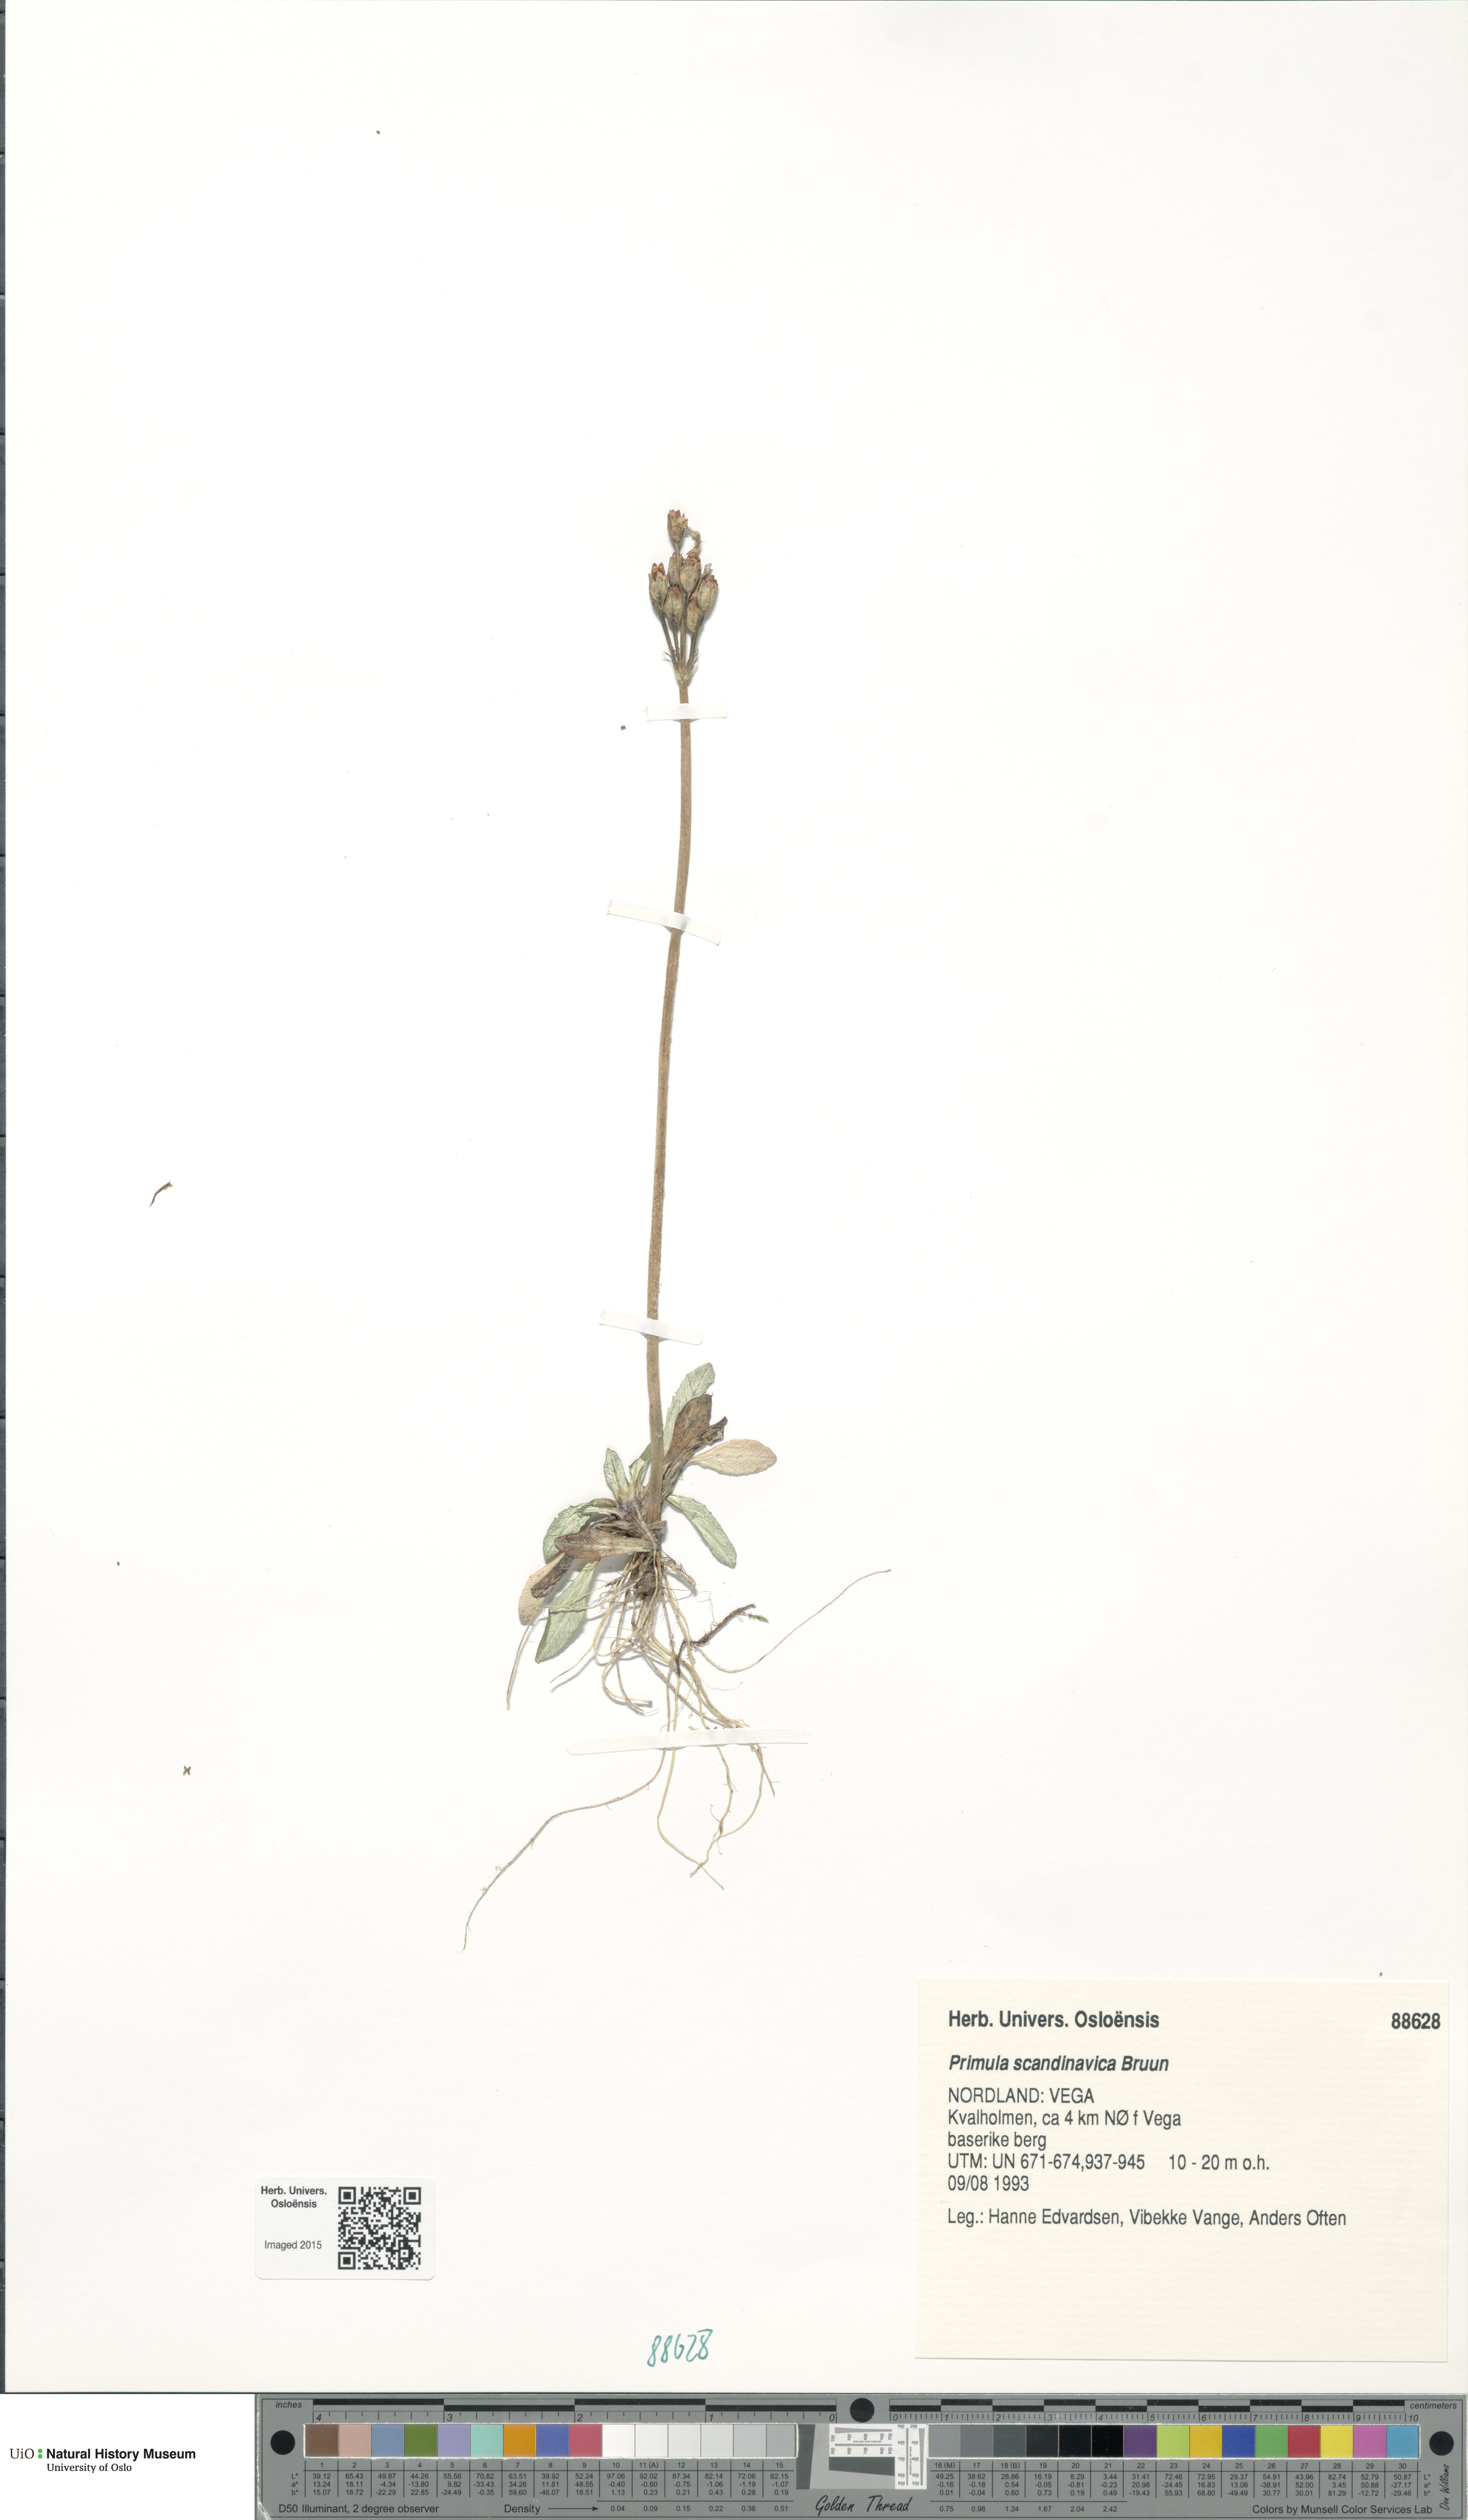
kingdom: Plantae
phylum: Tracheophyta
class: Magnoliopsida
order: Ericales
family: Primulaceae
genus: Primula
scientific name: Primula scandinavica
